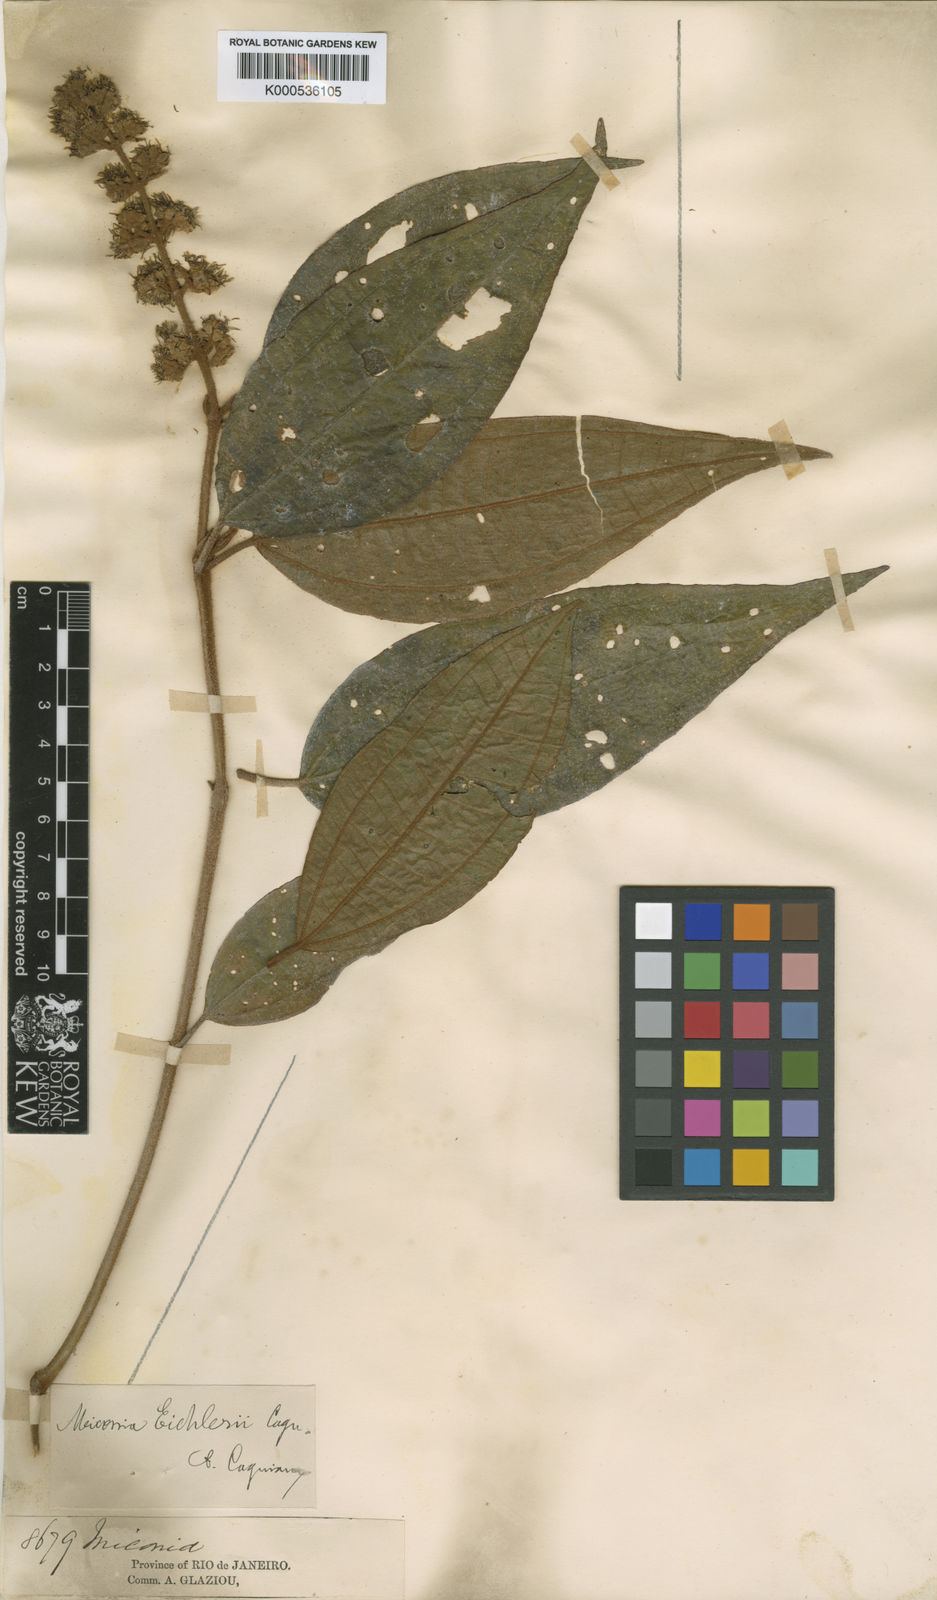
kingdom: Plantae
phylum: Tracheophyta
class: Magnoliopsida
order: Myrtales
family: Melastomataceae
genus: Miconia
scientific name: Miconia valtheri
